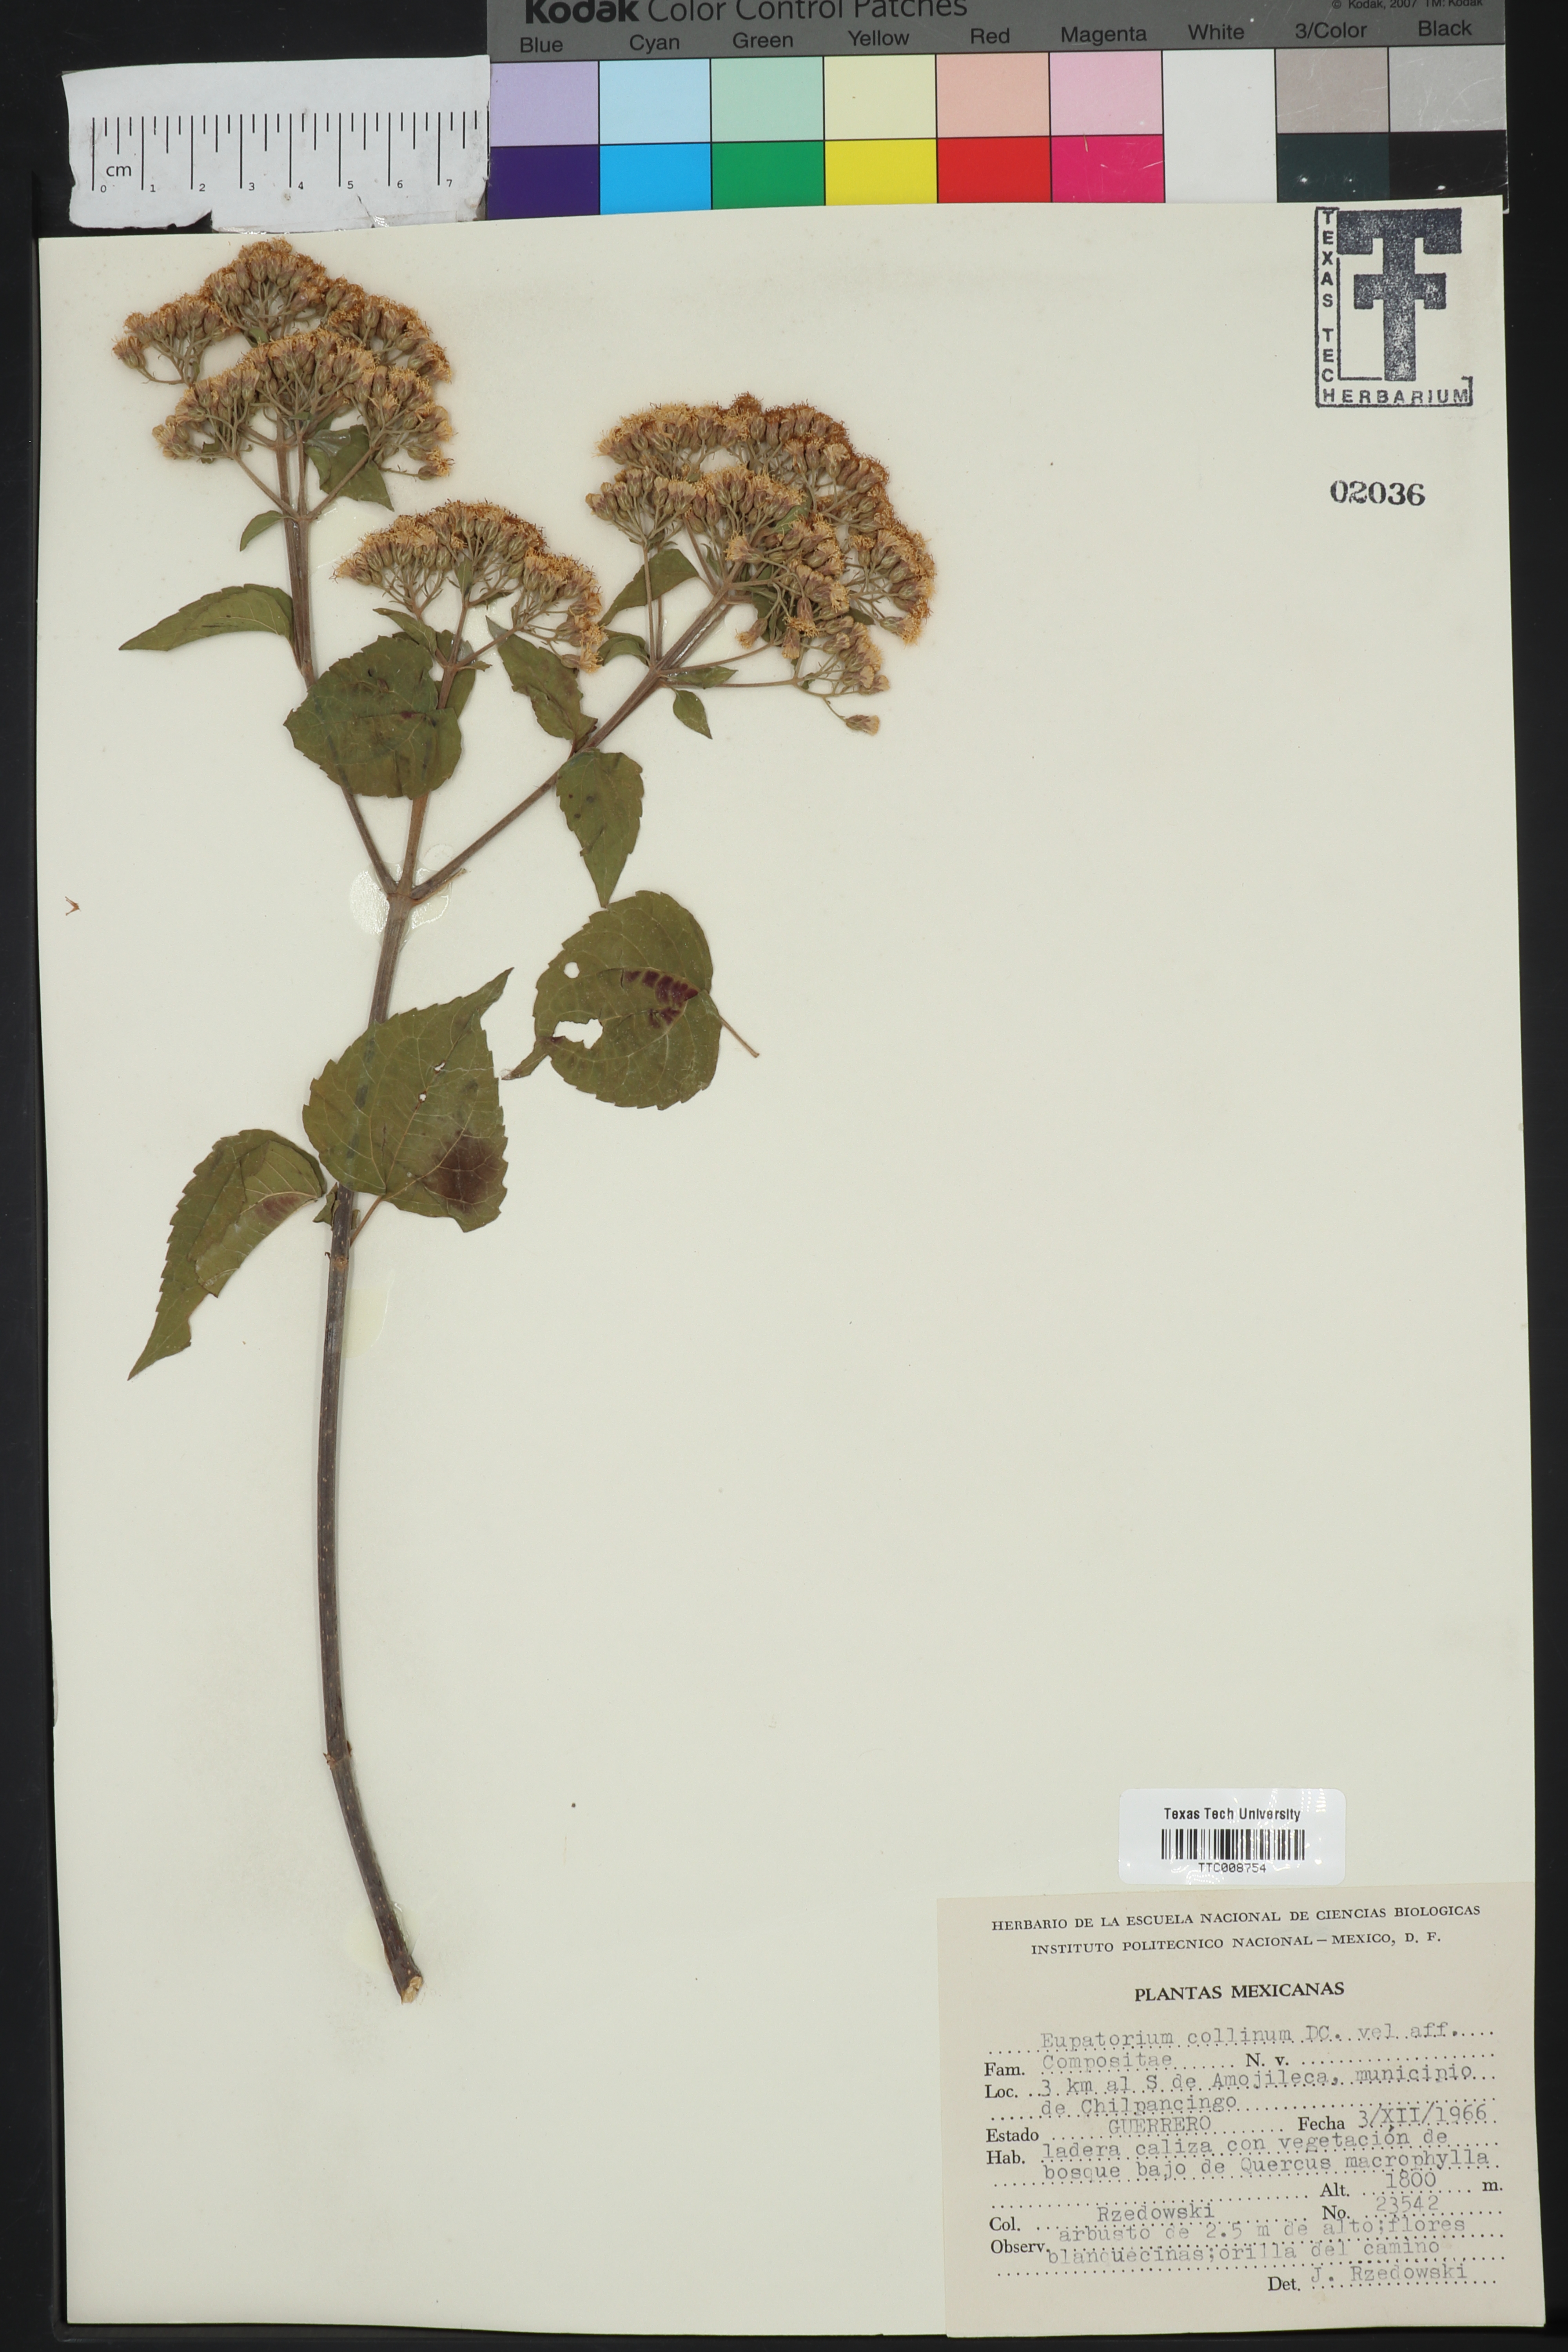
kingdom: Plantae
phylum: Tracheophyta
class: Magnoliopsida
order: Asterales
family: Asteraceae
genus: Chromolaena
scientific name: Chromolaena collina
